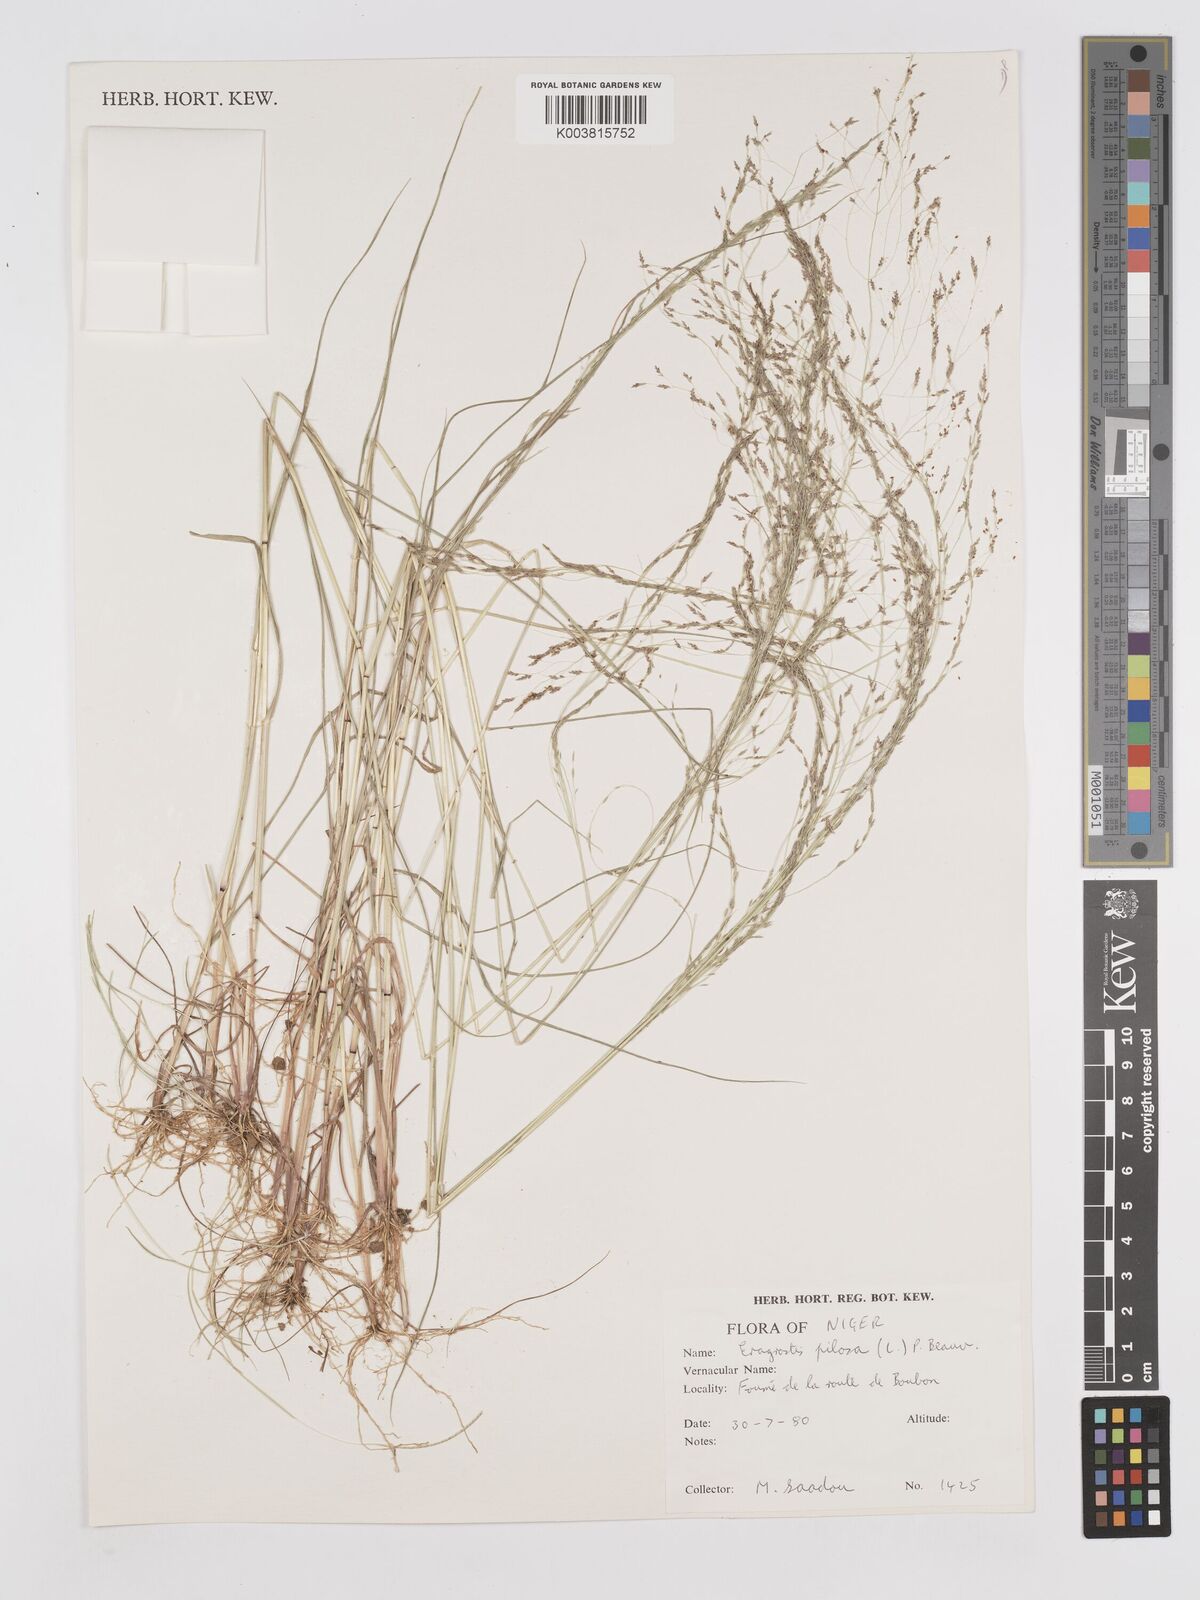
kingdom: Plantae
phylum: Tracheophyta
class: Liliopsida
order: Poales
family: Poaceae
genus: Eragrostis
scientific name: Eragrostis pilosa
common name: Indian lovegrass
